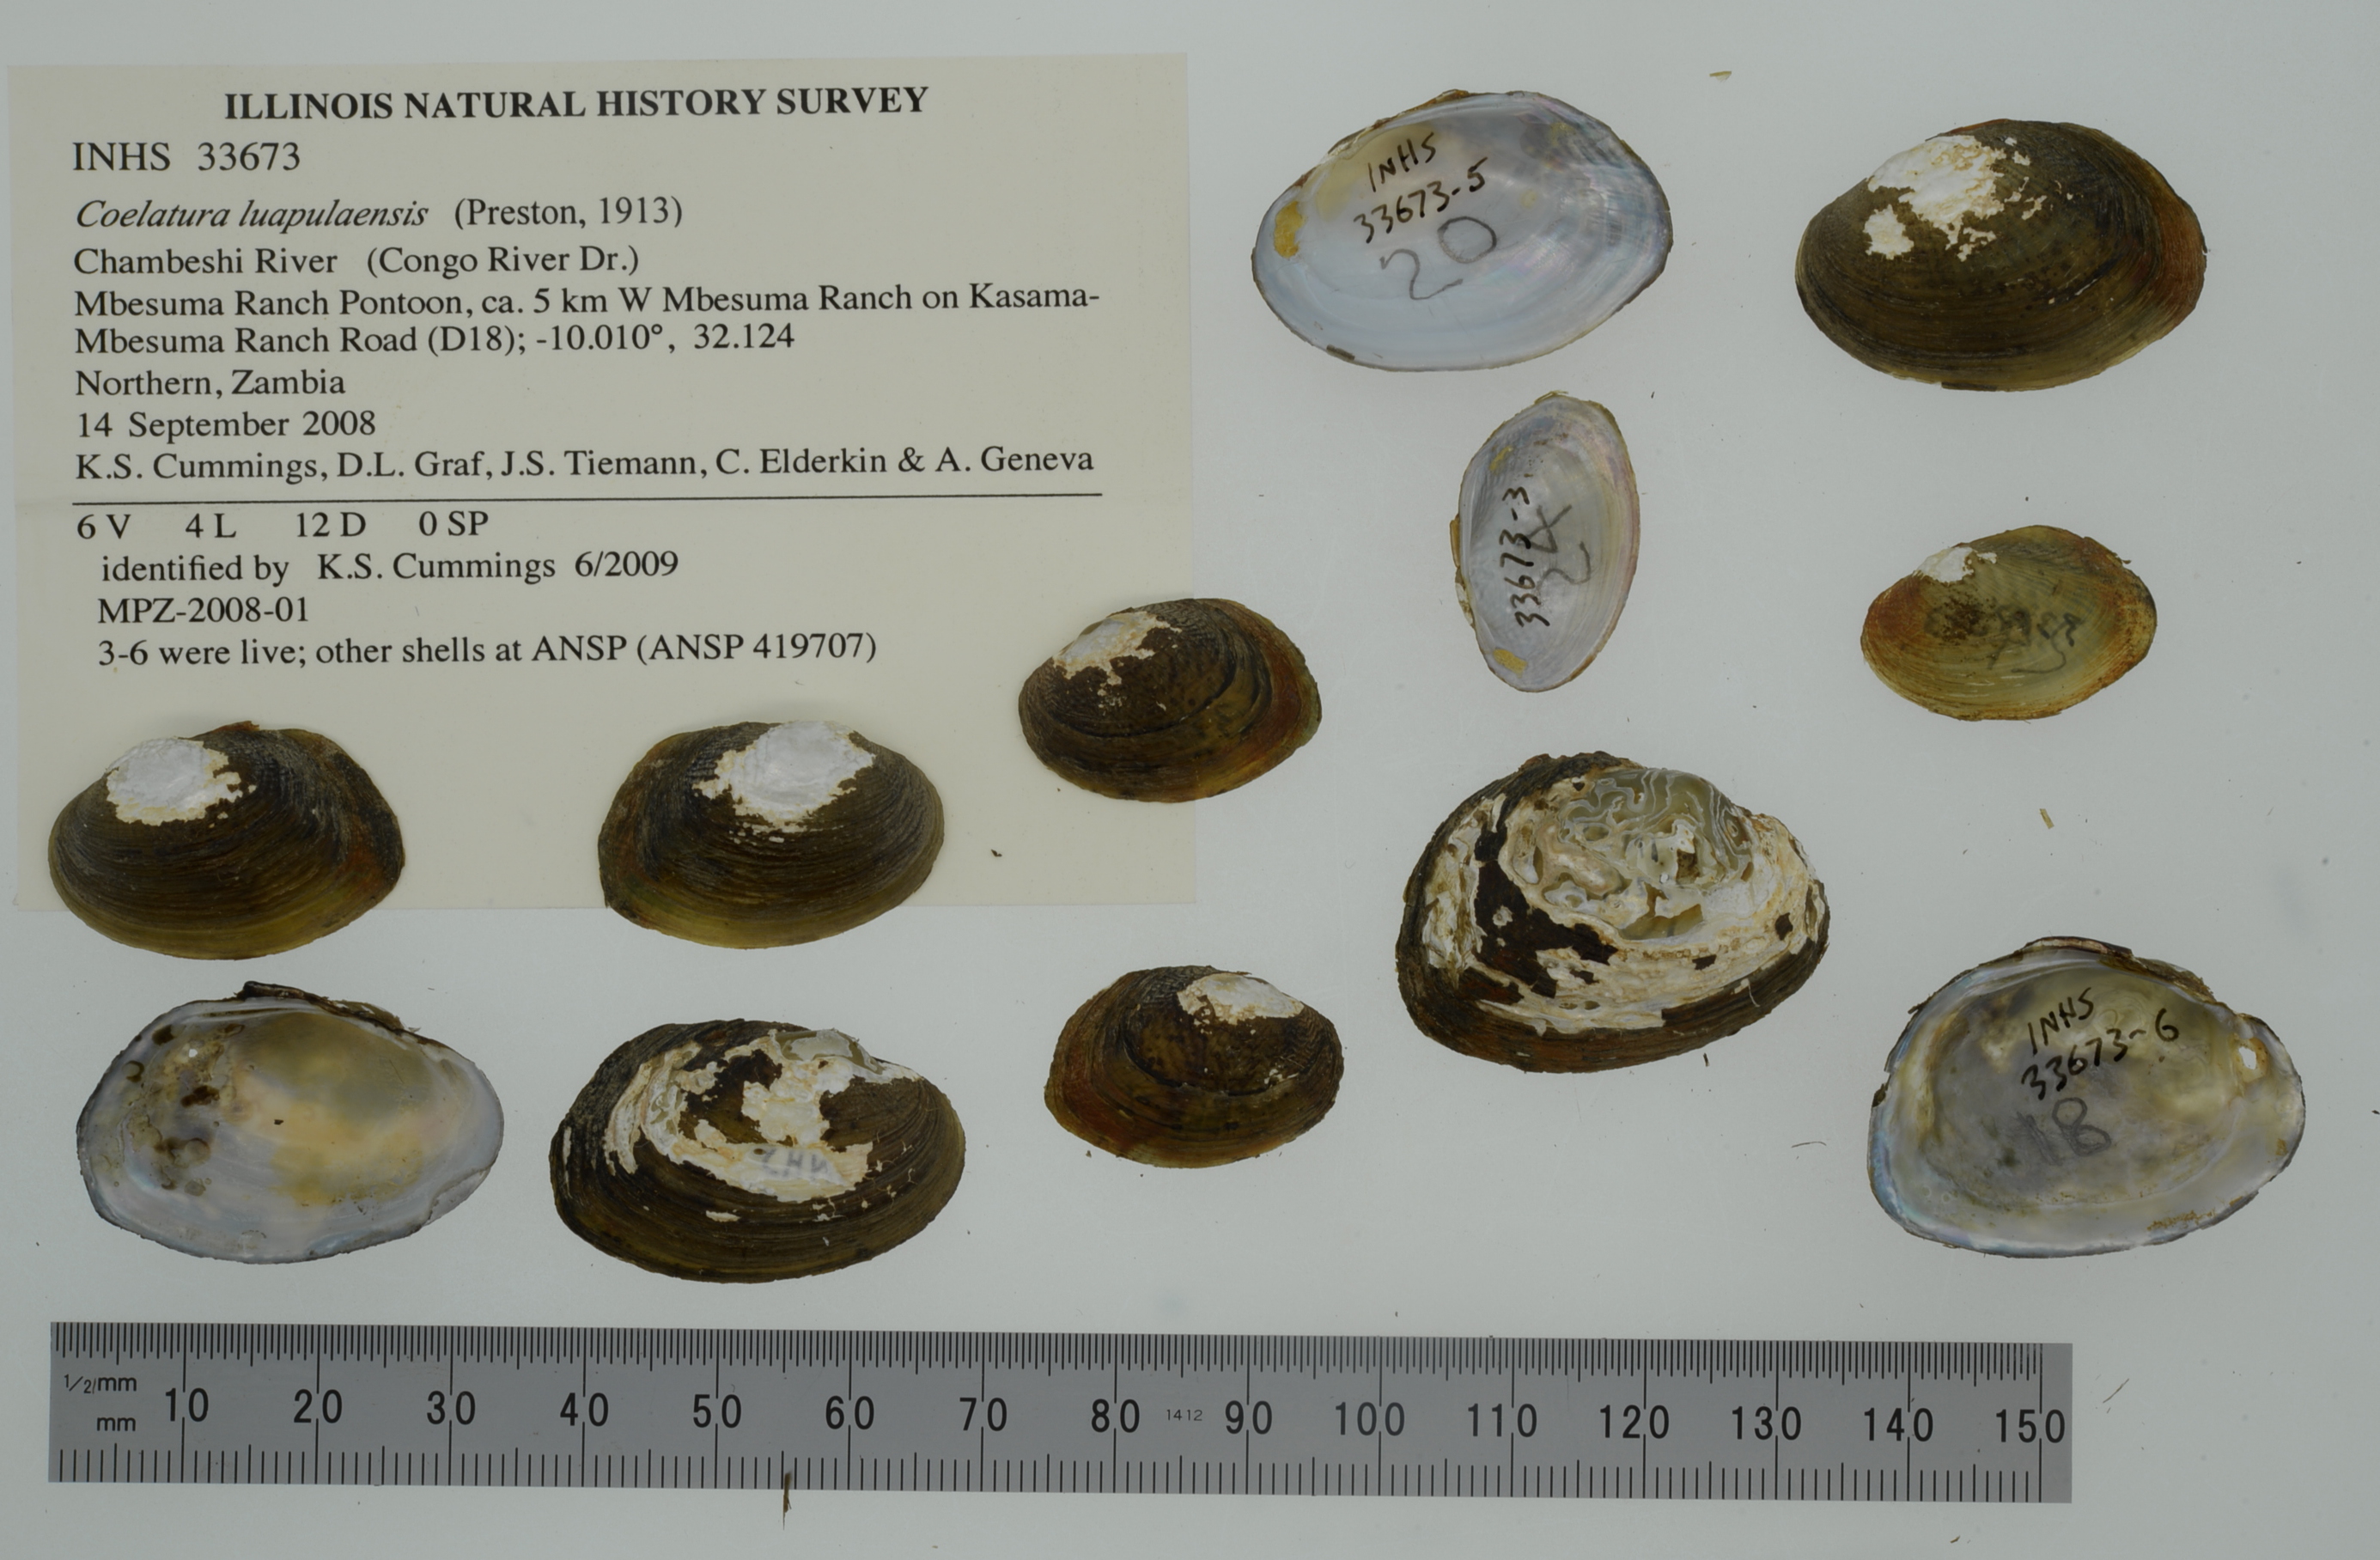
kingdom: Animalia
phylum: Mollusca
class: Bivalvia
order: Unionida
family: Unionidae
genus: Coelatura
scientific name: Coelatura luapulaensis
